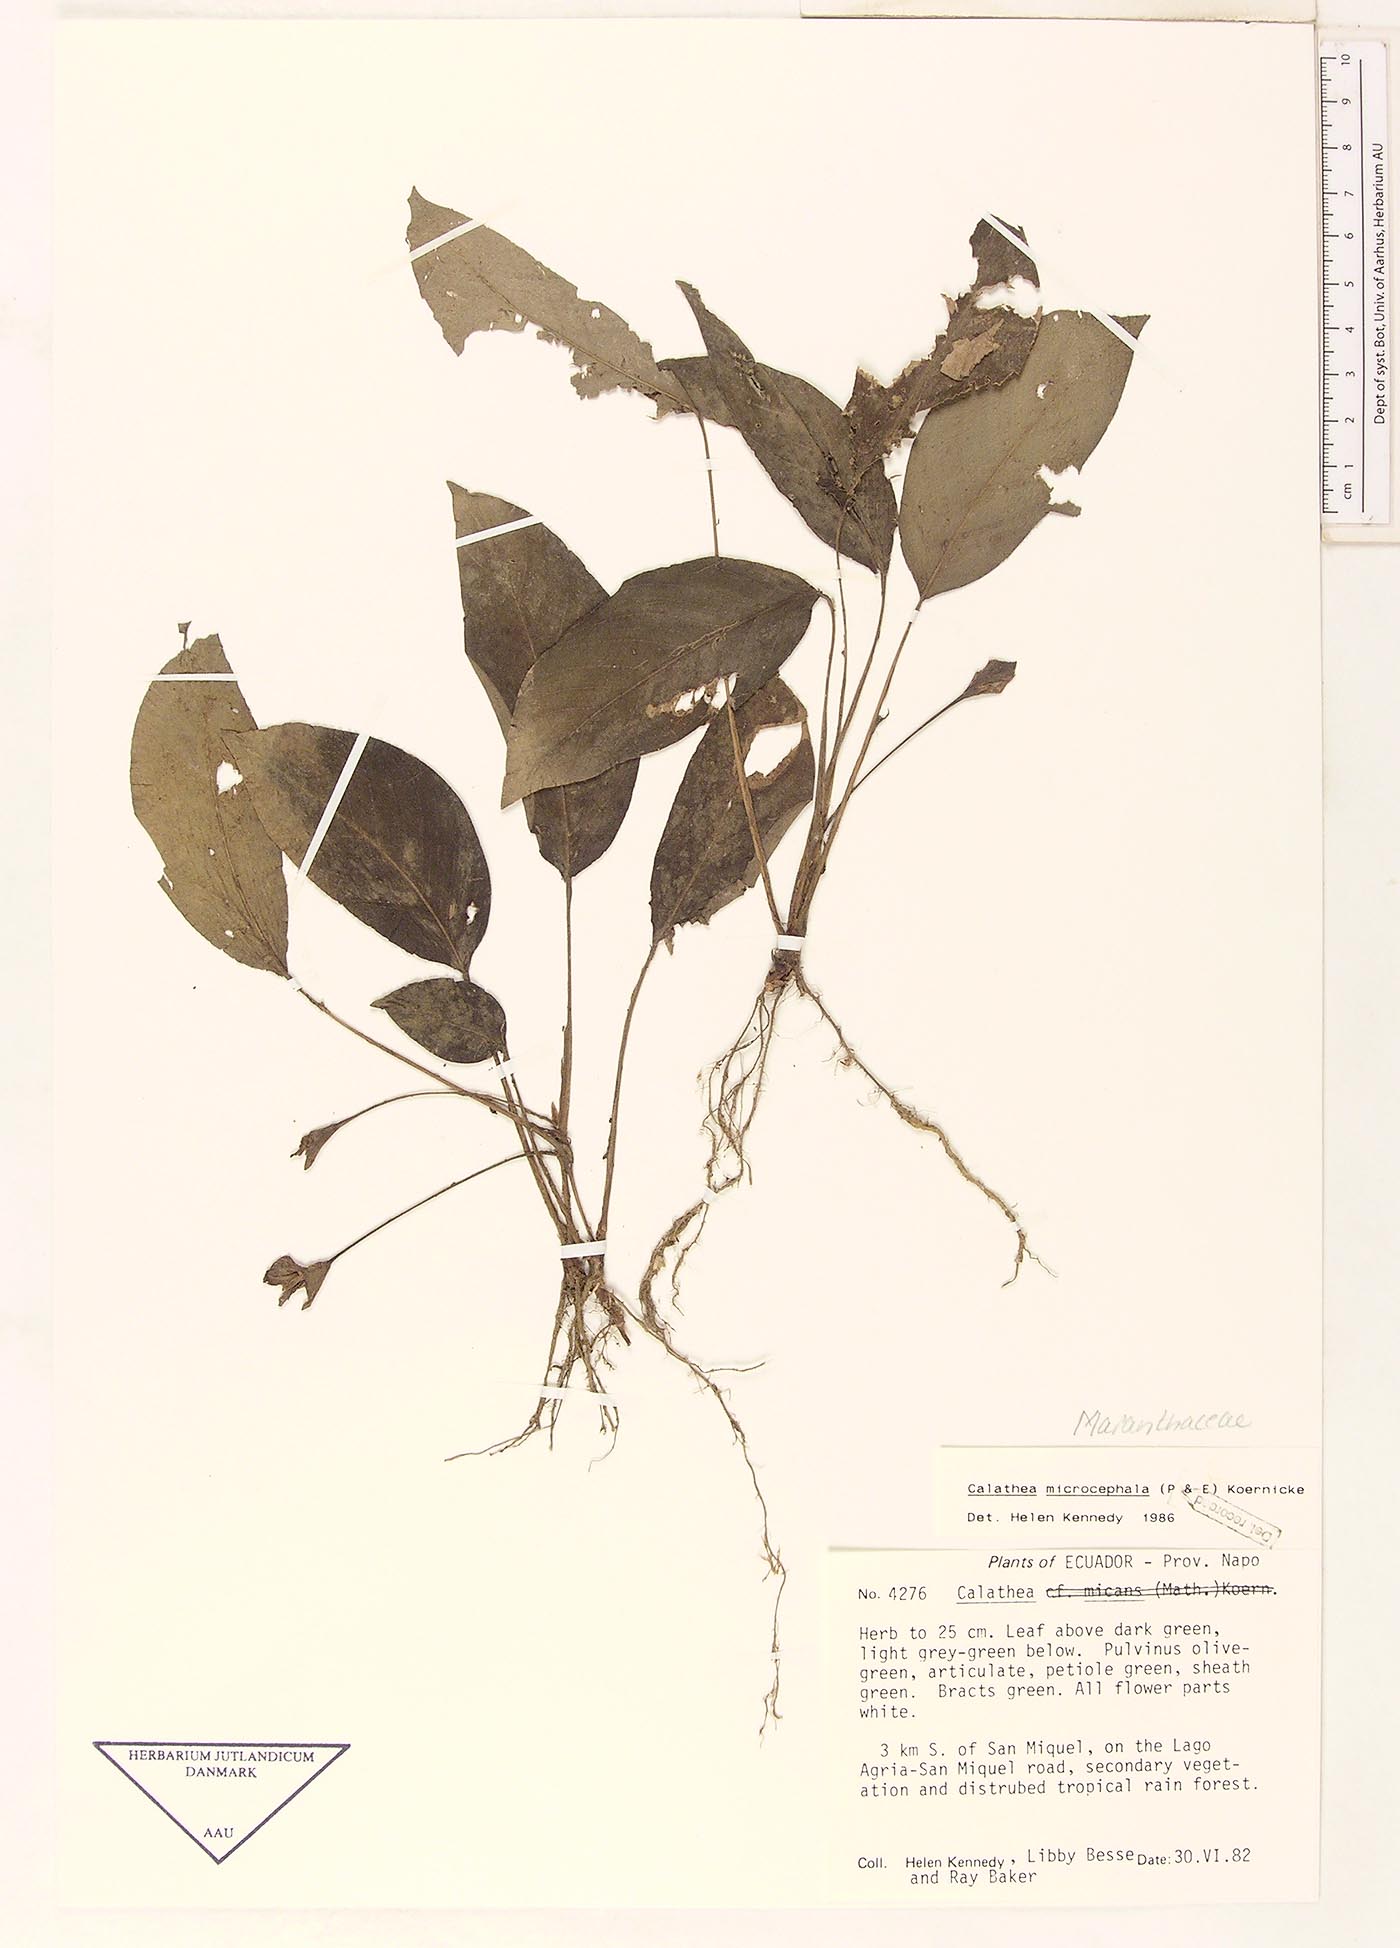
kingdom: Plantae
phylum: Tracheophyta
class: Liliopsida
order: Zingiberales
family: Marantaceae
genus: Goeppertia
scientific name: Goeppertia microcephala
